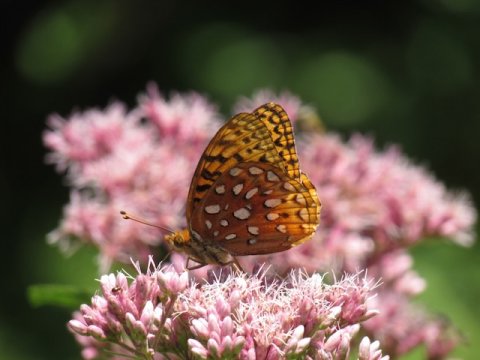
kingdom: Animalia
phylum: Arthropoda
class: Insecta
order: Lepidoptera
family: Nymphalidae
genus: Speyeria
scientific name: Speyeria aphrodite
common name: Aphrodite Fritillary
